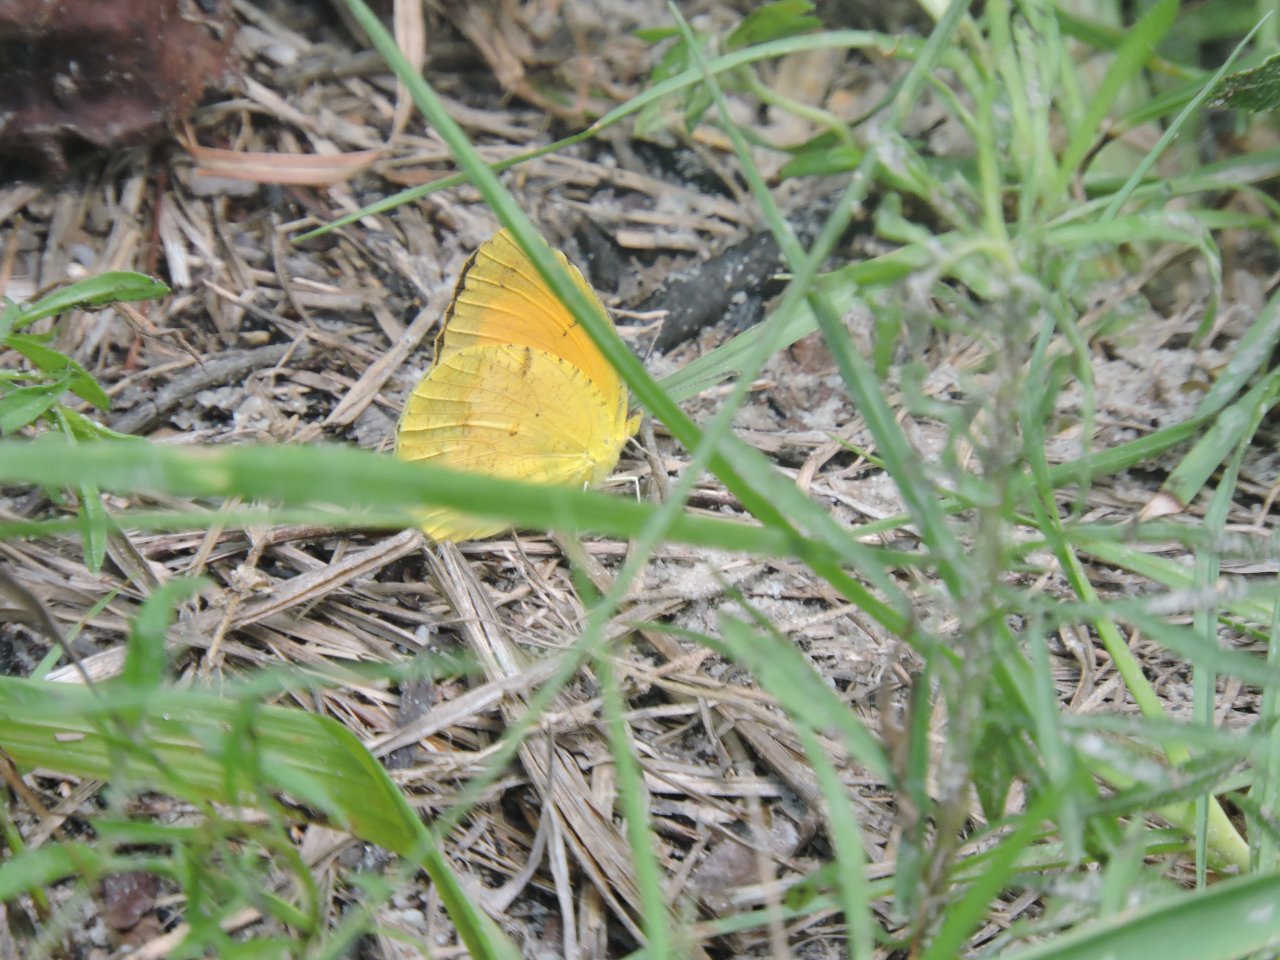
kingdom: Animalia
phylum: Arthropoda
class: Insecta
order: Lepidoptera
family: Pieridae
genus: Abaeis
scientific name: Abaeis nicippe
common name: Sleepy Orange
